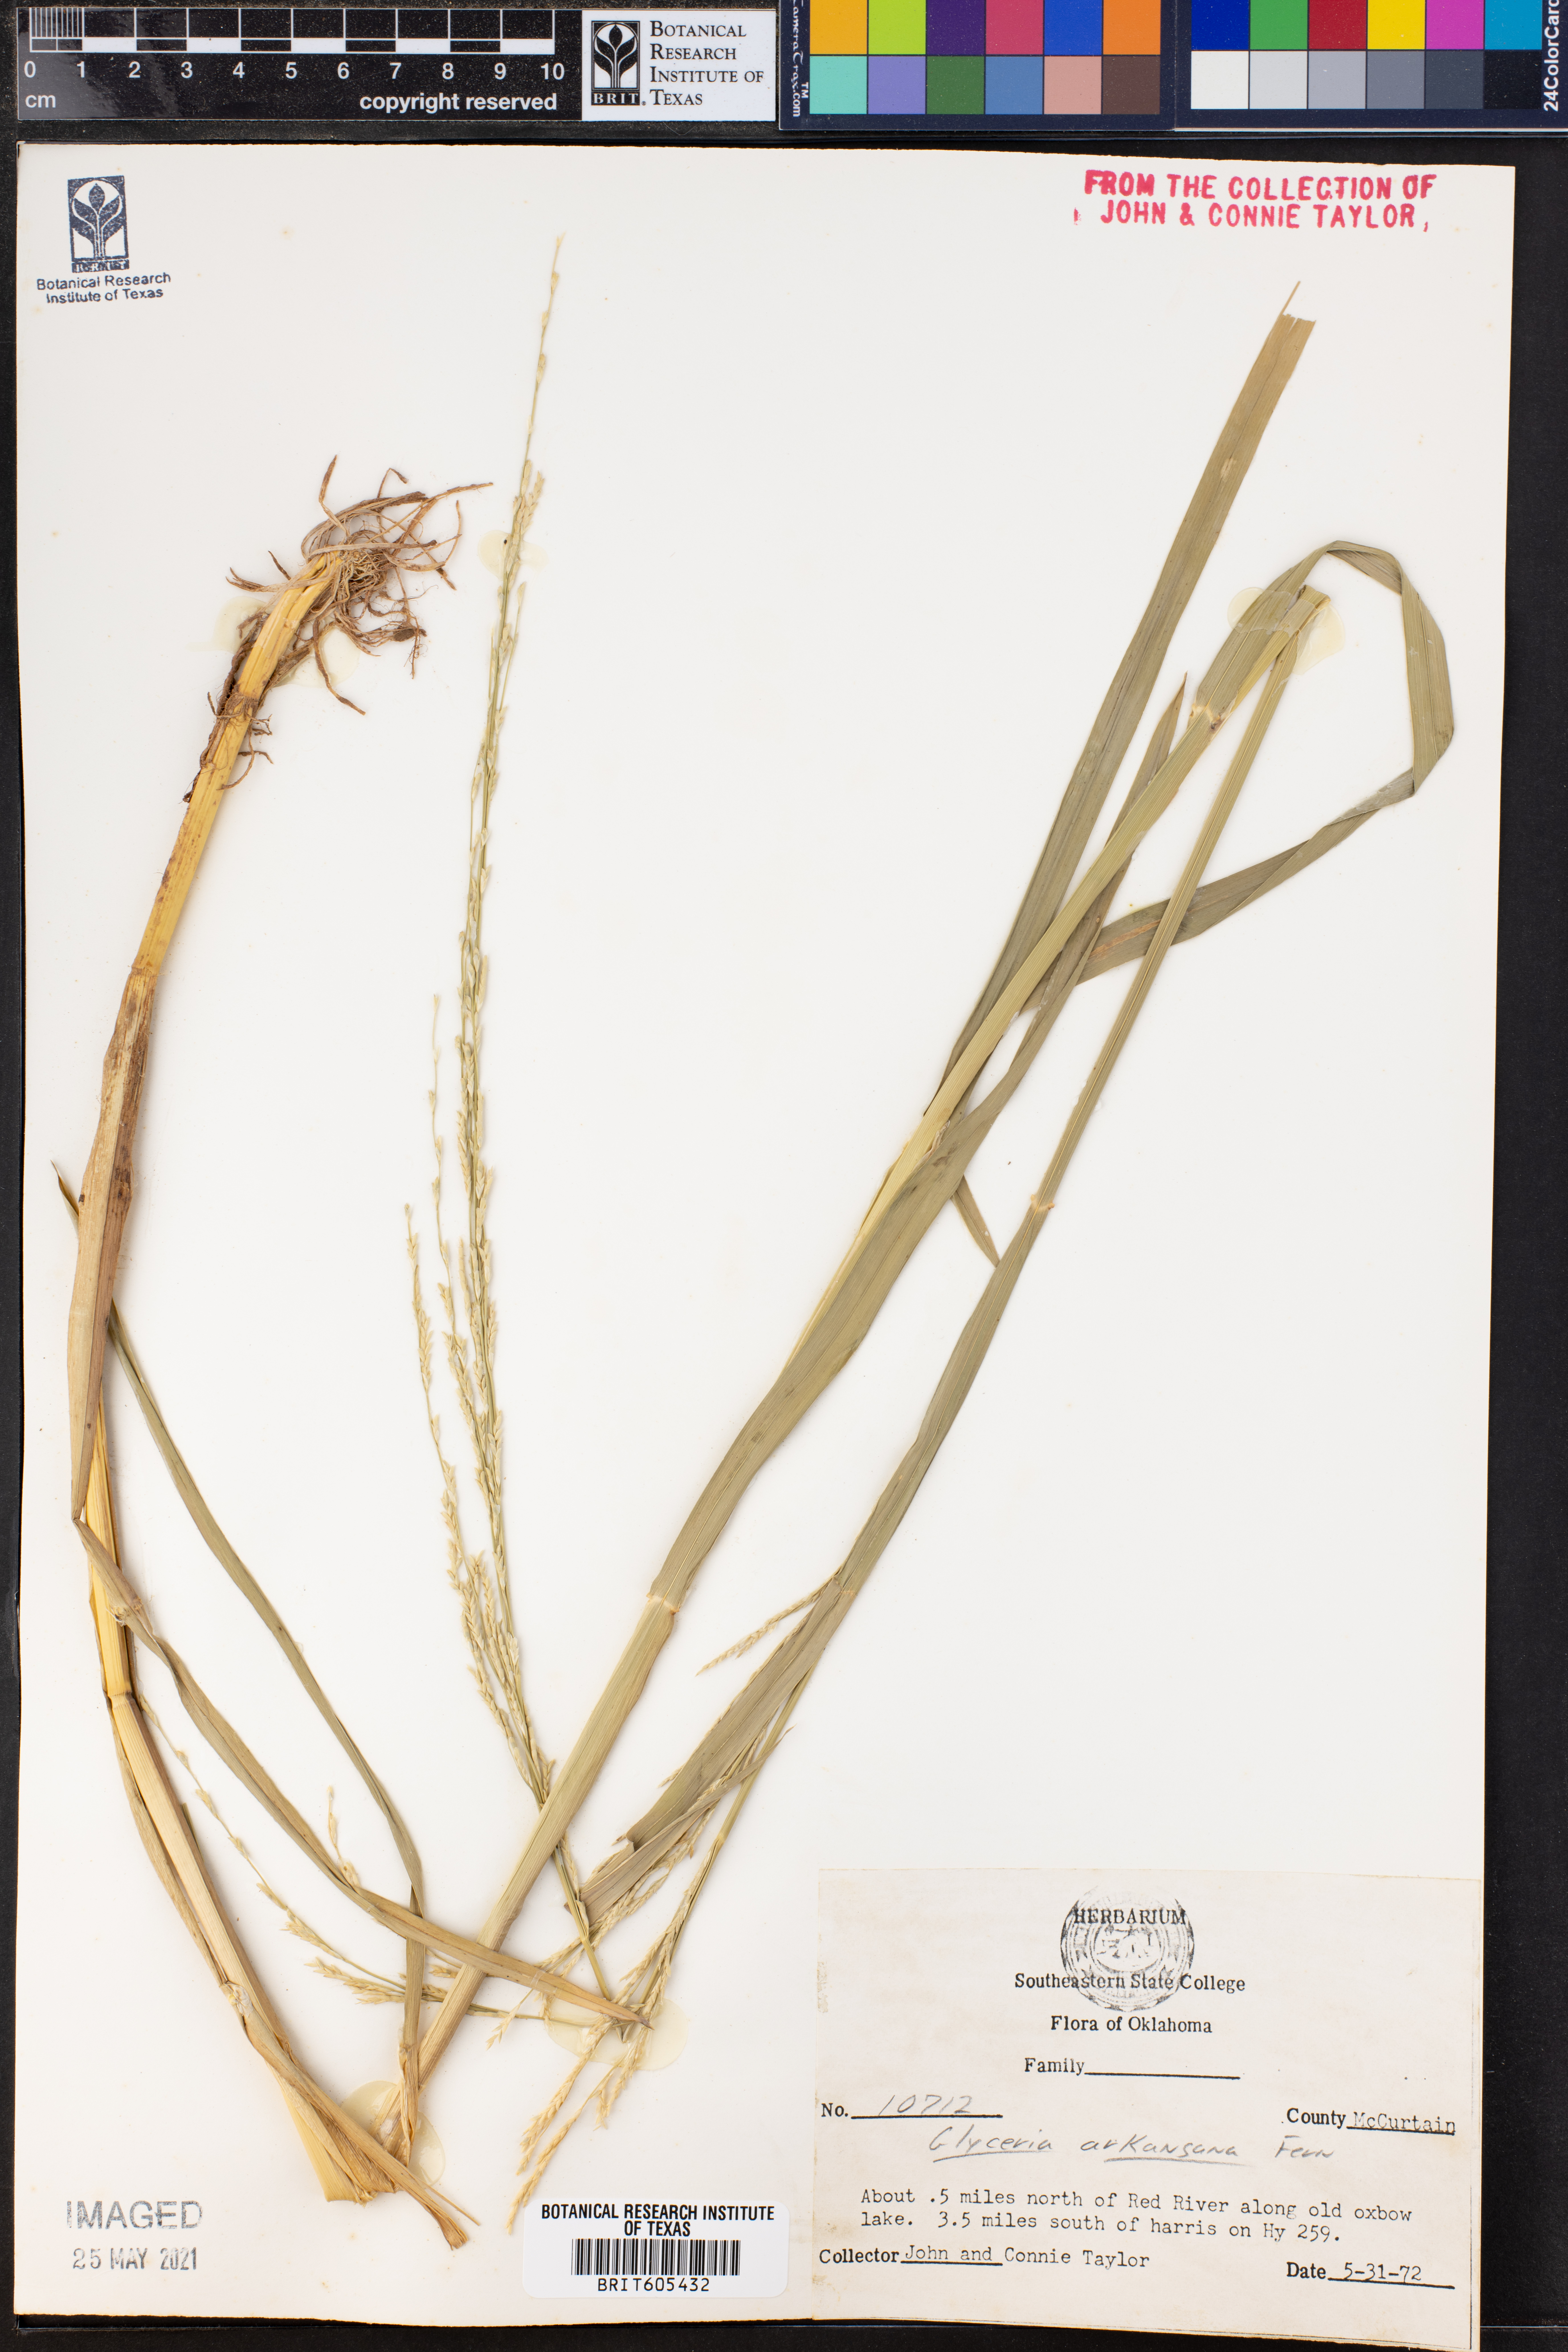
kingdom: Plantae
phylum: Tracheophyta
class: Liliopsida
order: Poales
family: Poaceae
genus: Glyceria
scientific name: Glyceria arkansana
